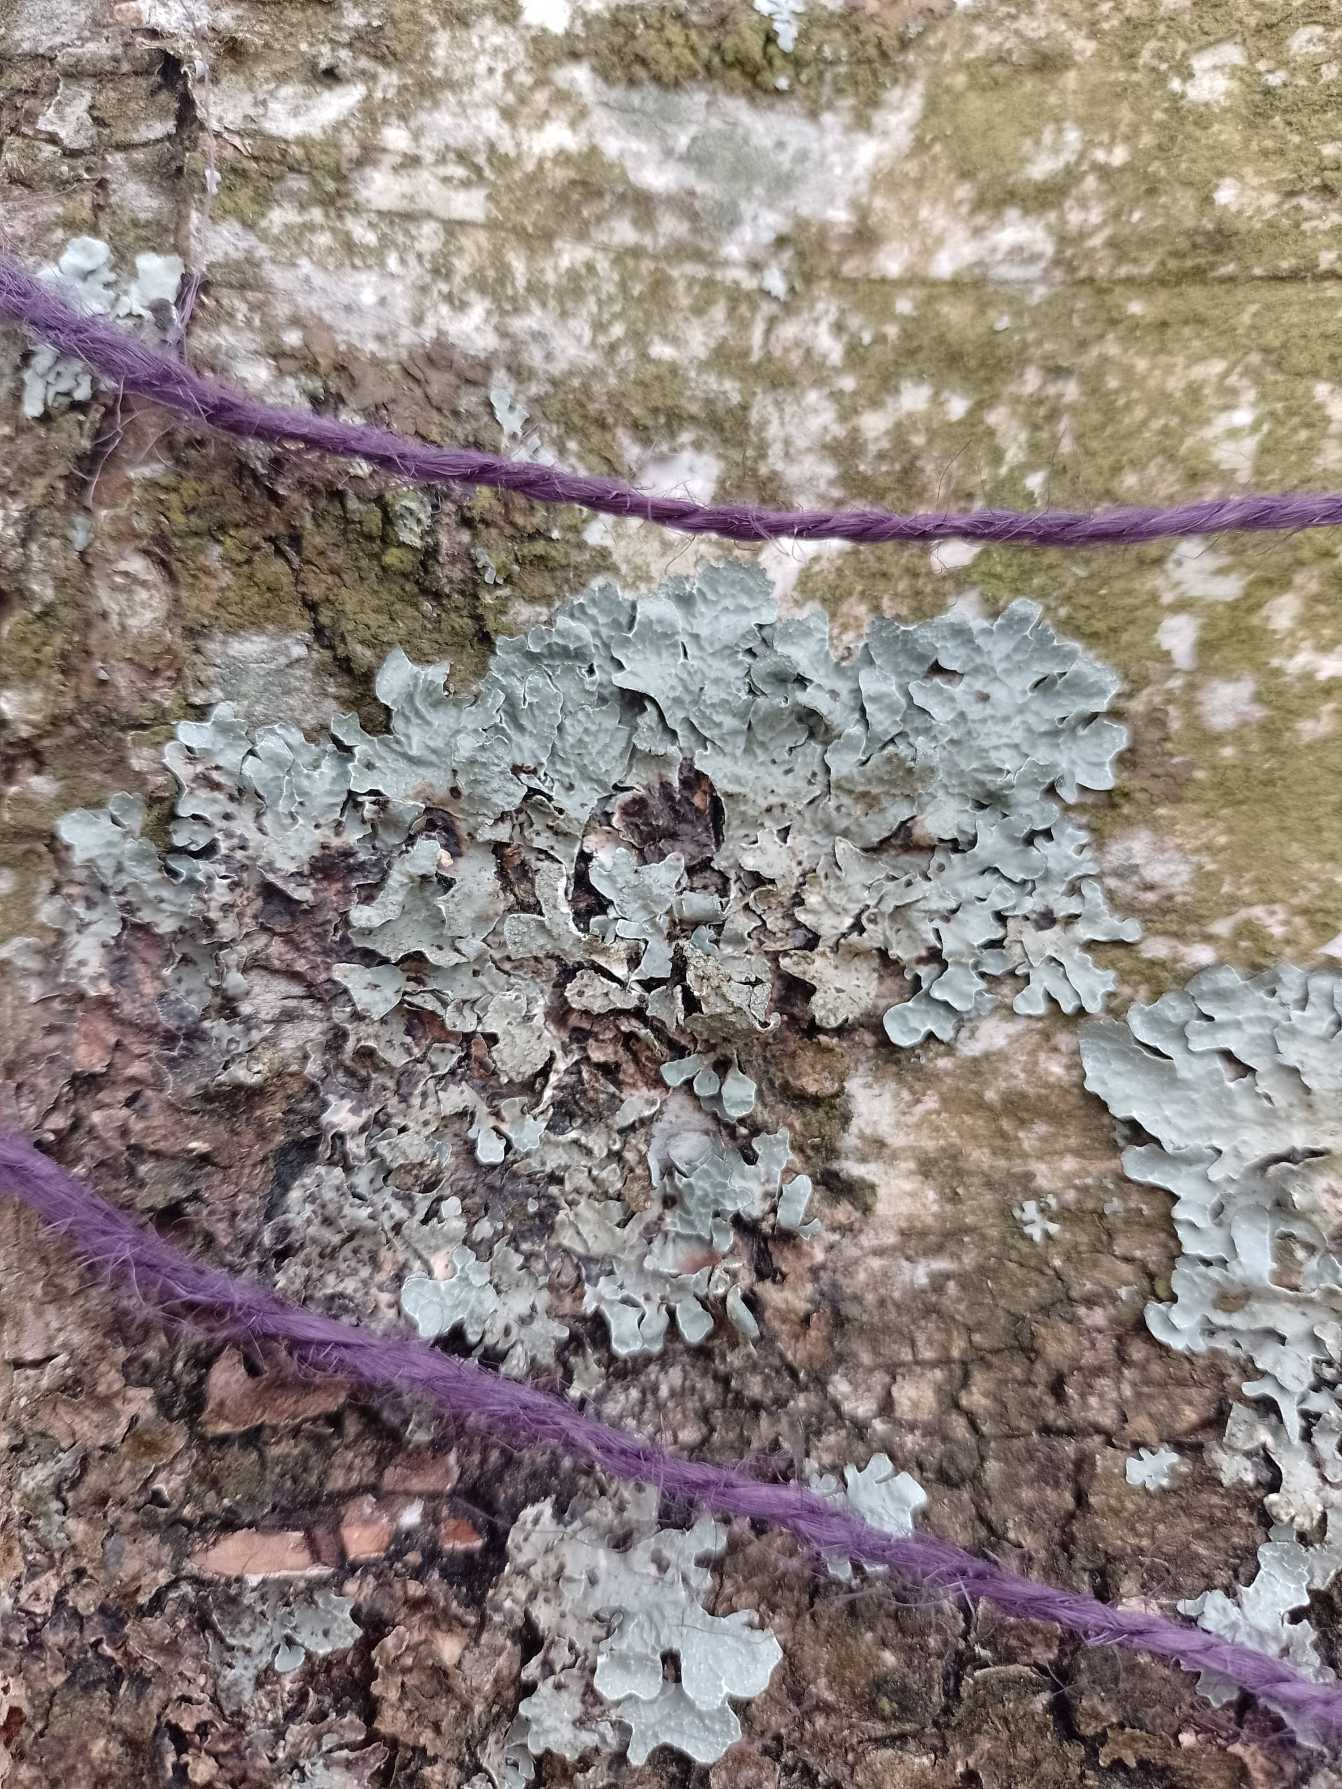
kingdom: Fungi
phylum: Ascomycota
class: Lecanoromycetes
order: Lecanorales
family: Parmeliaceae
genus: Parmelia
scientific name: Parmelia sulcata
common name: Rynket skållav
